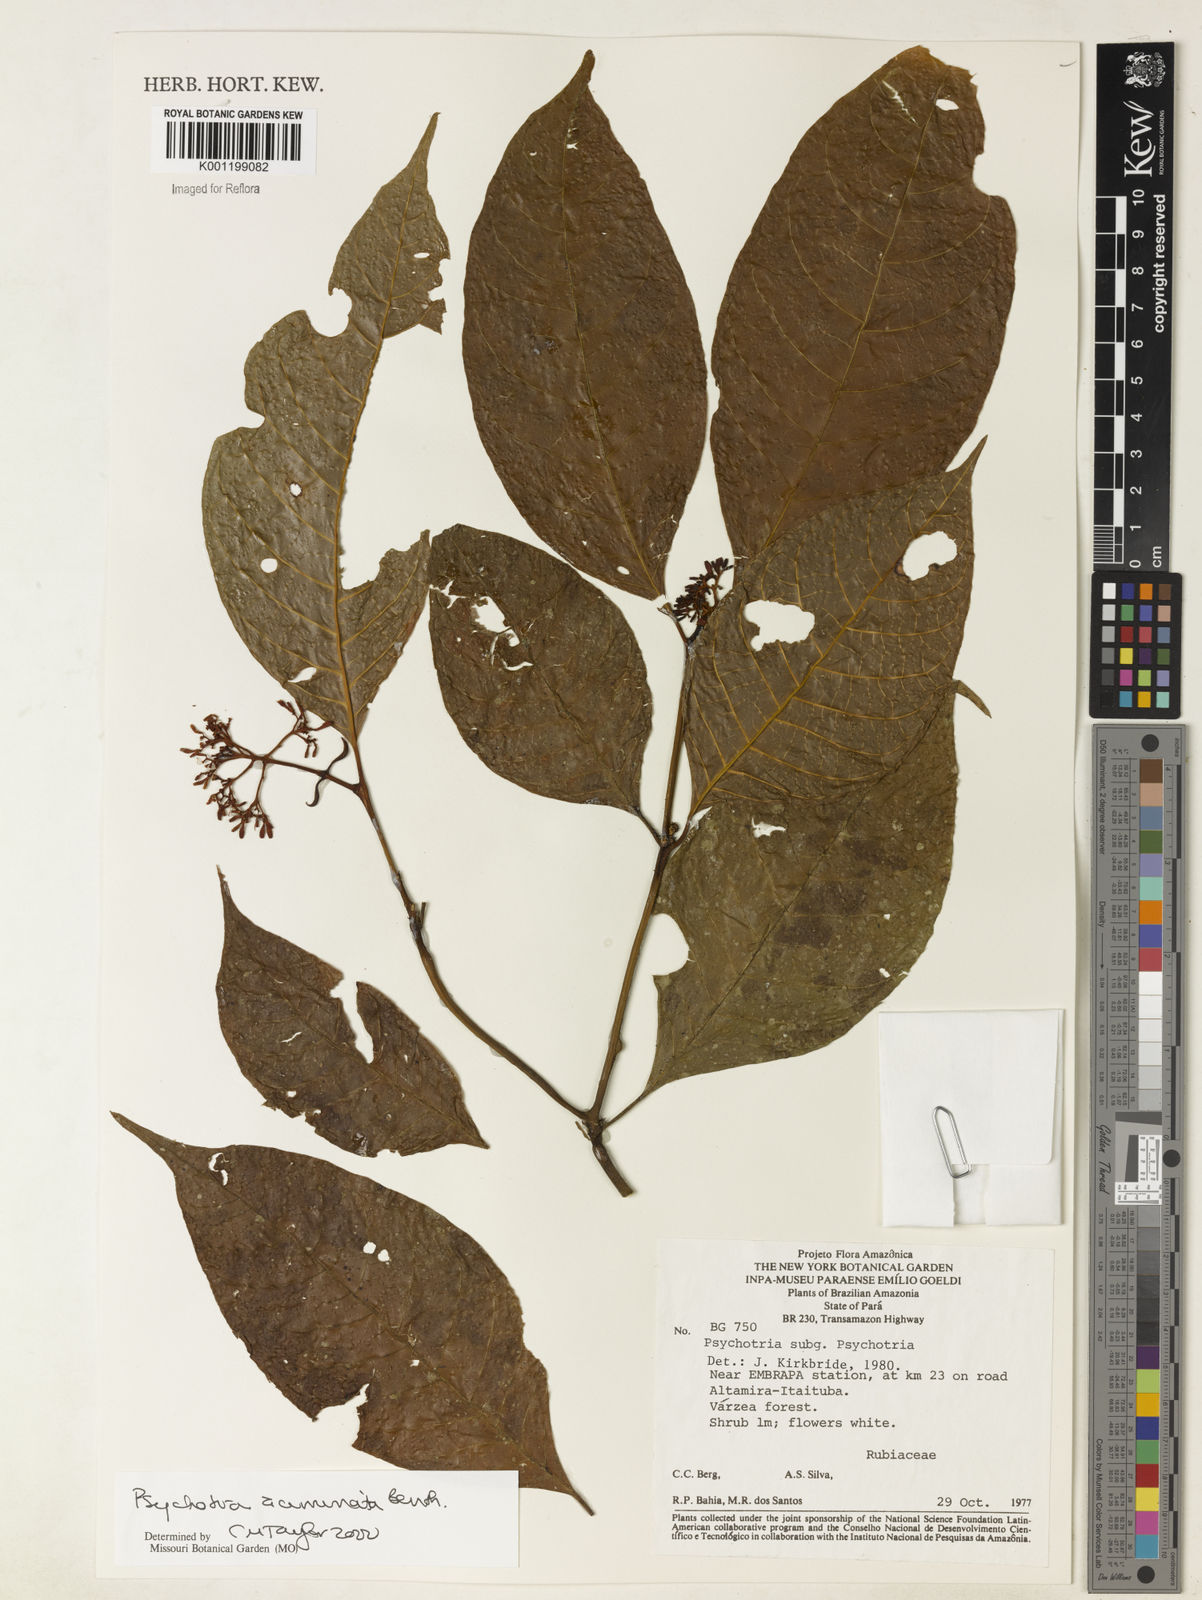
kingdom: Plantae
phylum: Tracheophyta
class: Magnoliopsida
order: Gentianales
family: Rubiaceae
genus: Palicourea
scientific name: Palicourea acuminata
